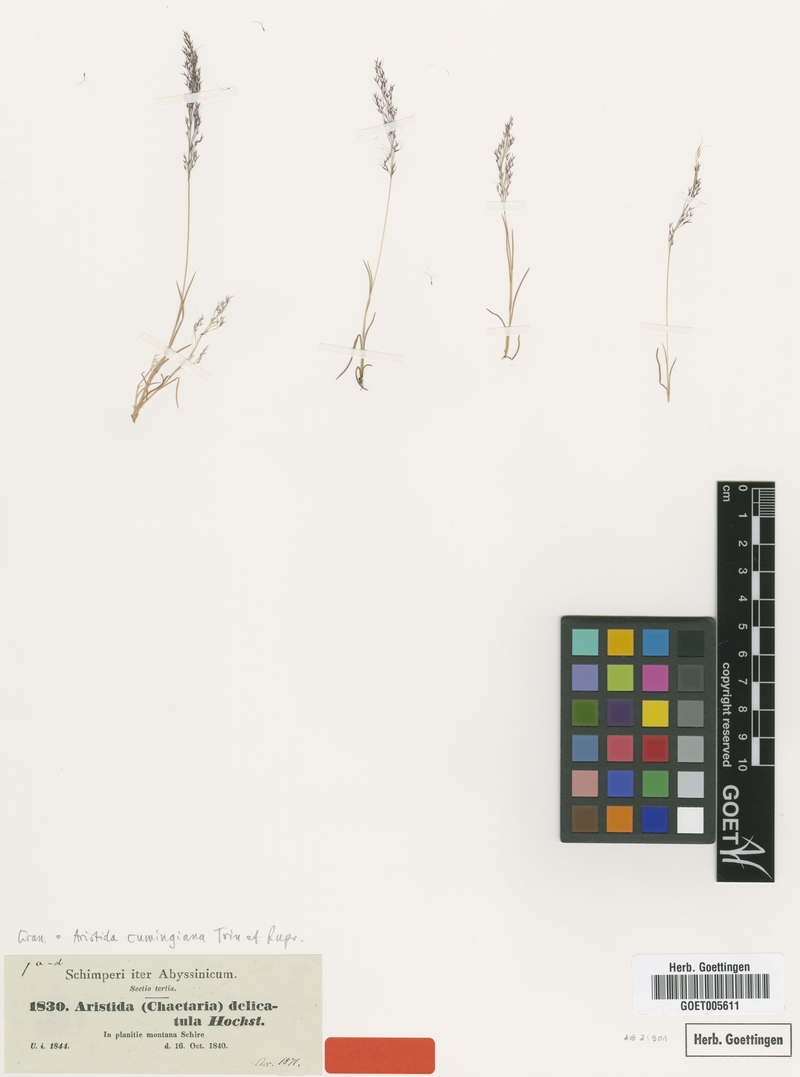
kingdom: Plantae
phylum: Tracheophyta
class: Liliopsida
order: Poales
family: Poaceae
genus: Aristida
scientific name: Aristida cumingiana
